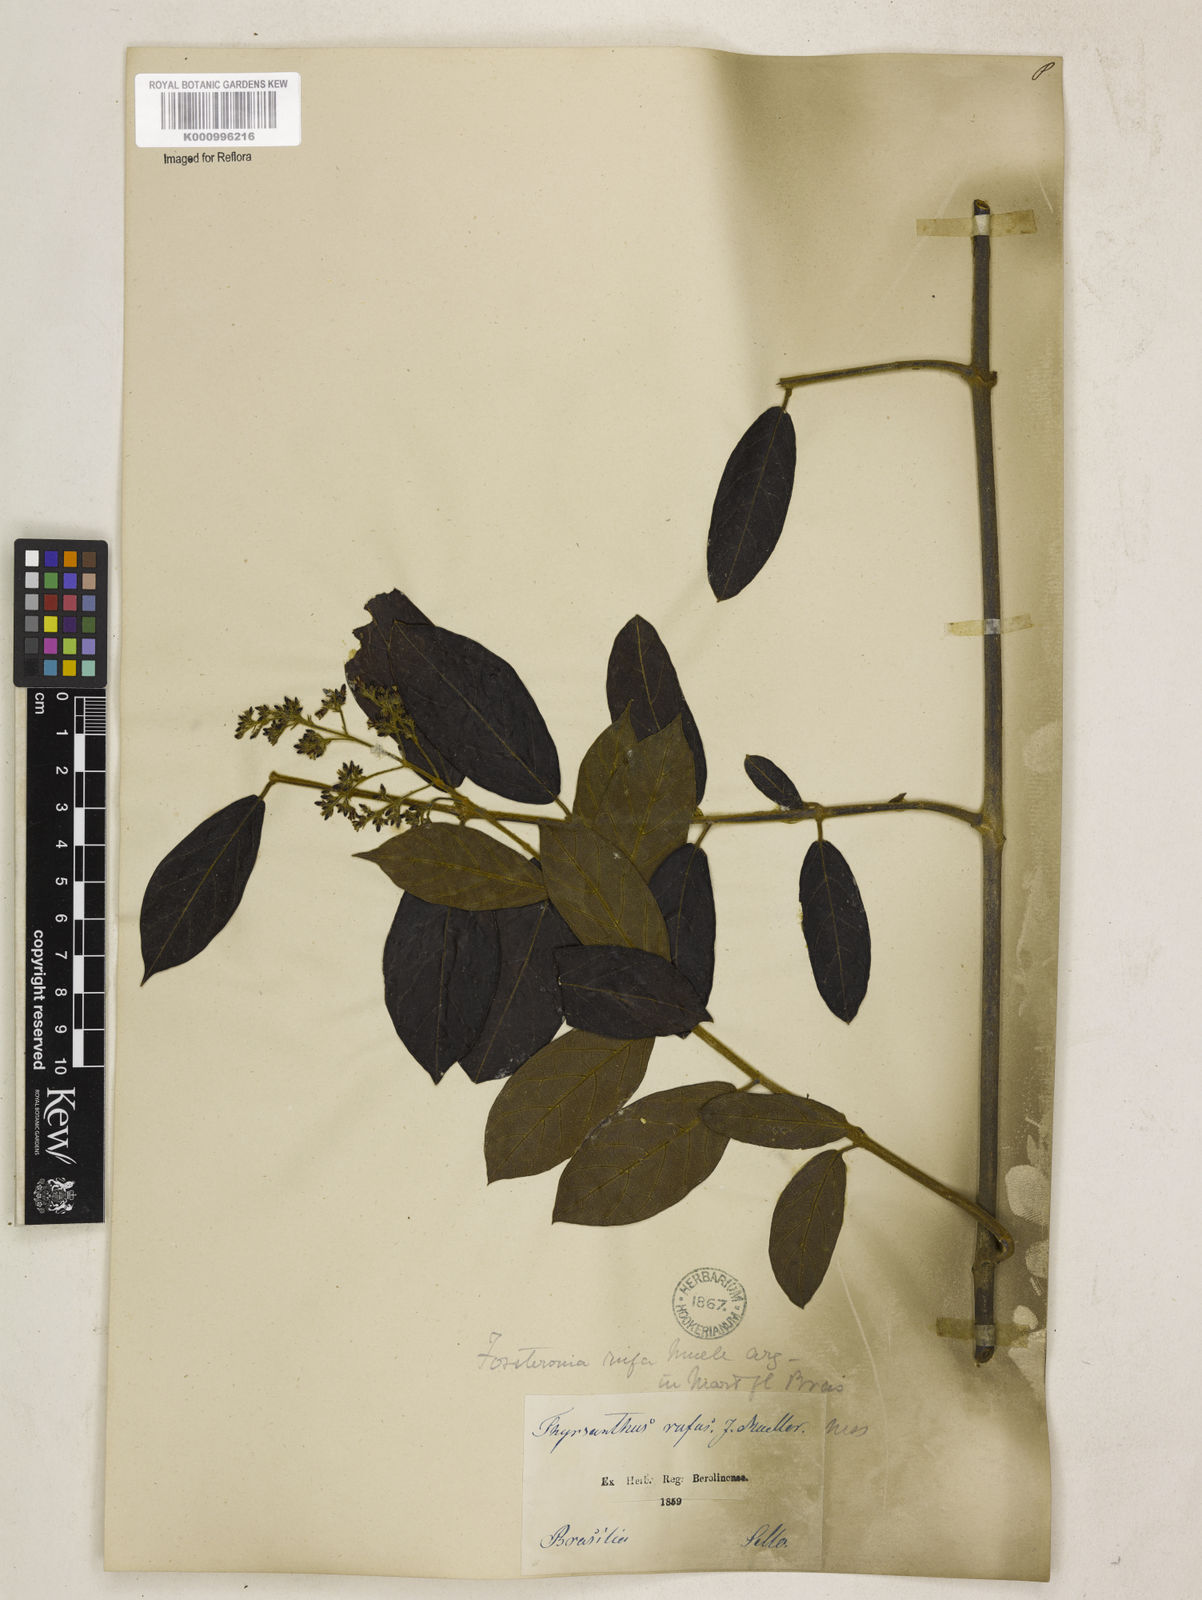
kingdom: Plantae
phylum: Tracheophyta
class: Magnoliopsida
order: Gentianales
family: Apocynaceae
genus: Forsteronia
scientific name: Forsteronia
